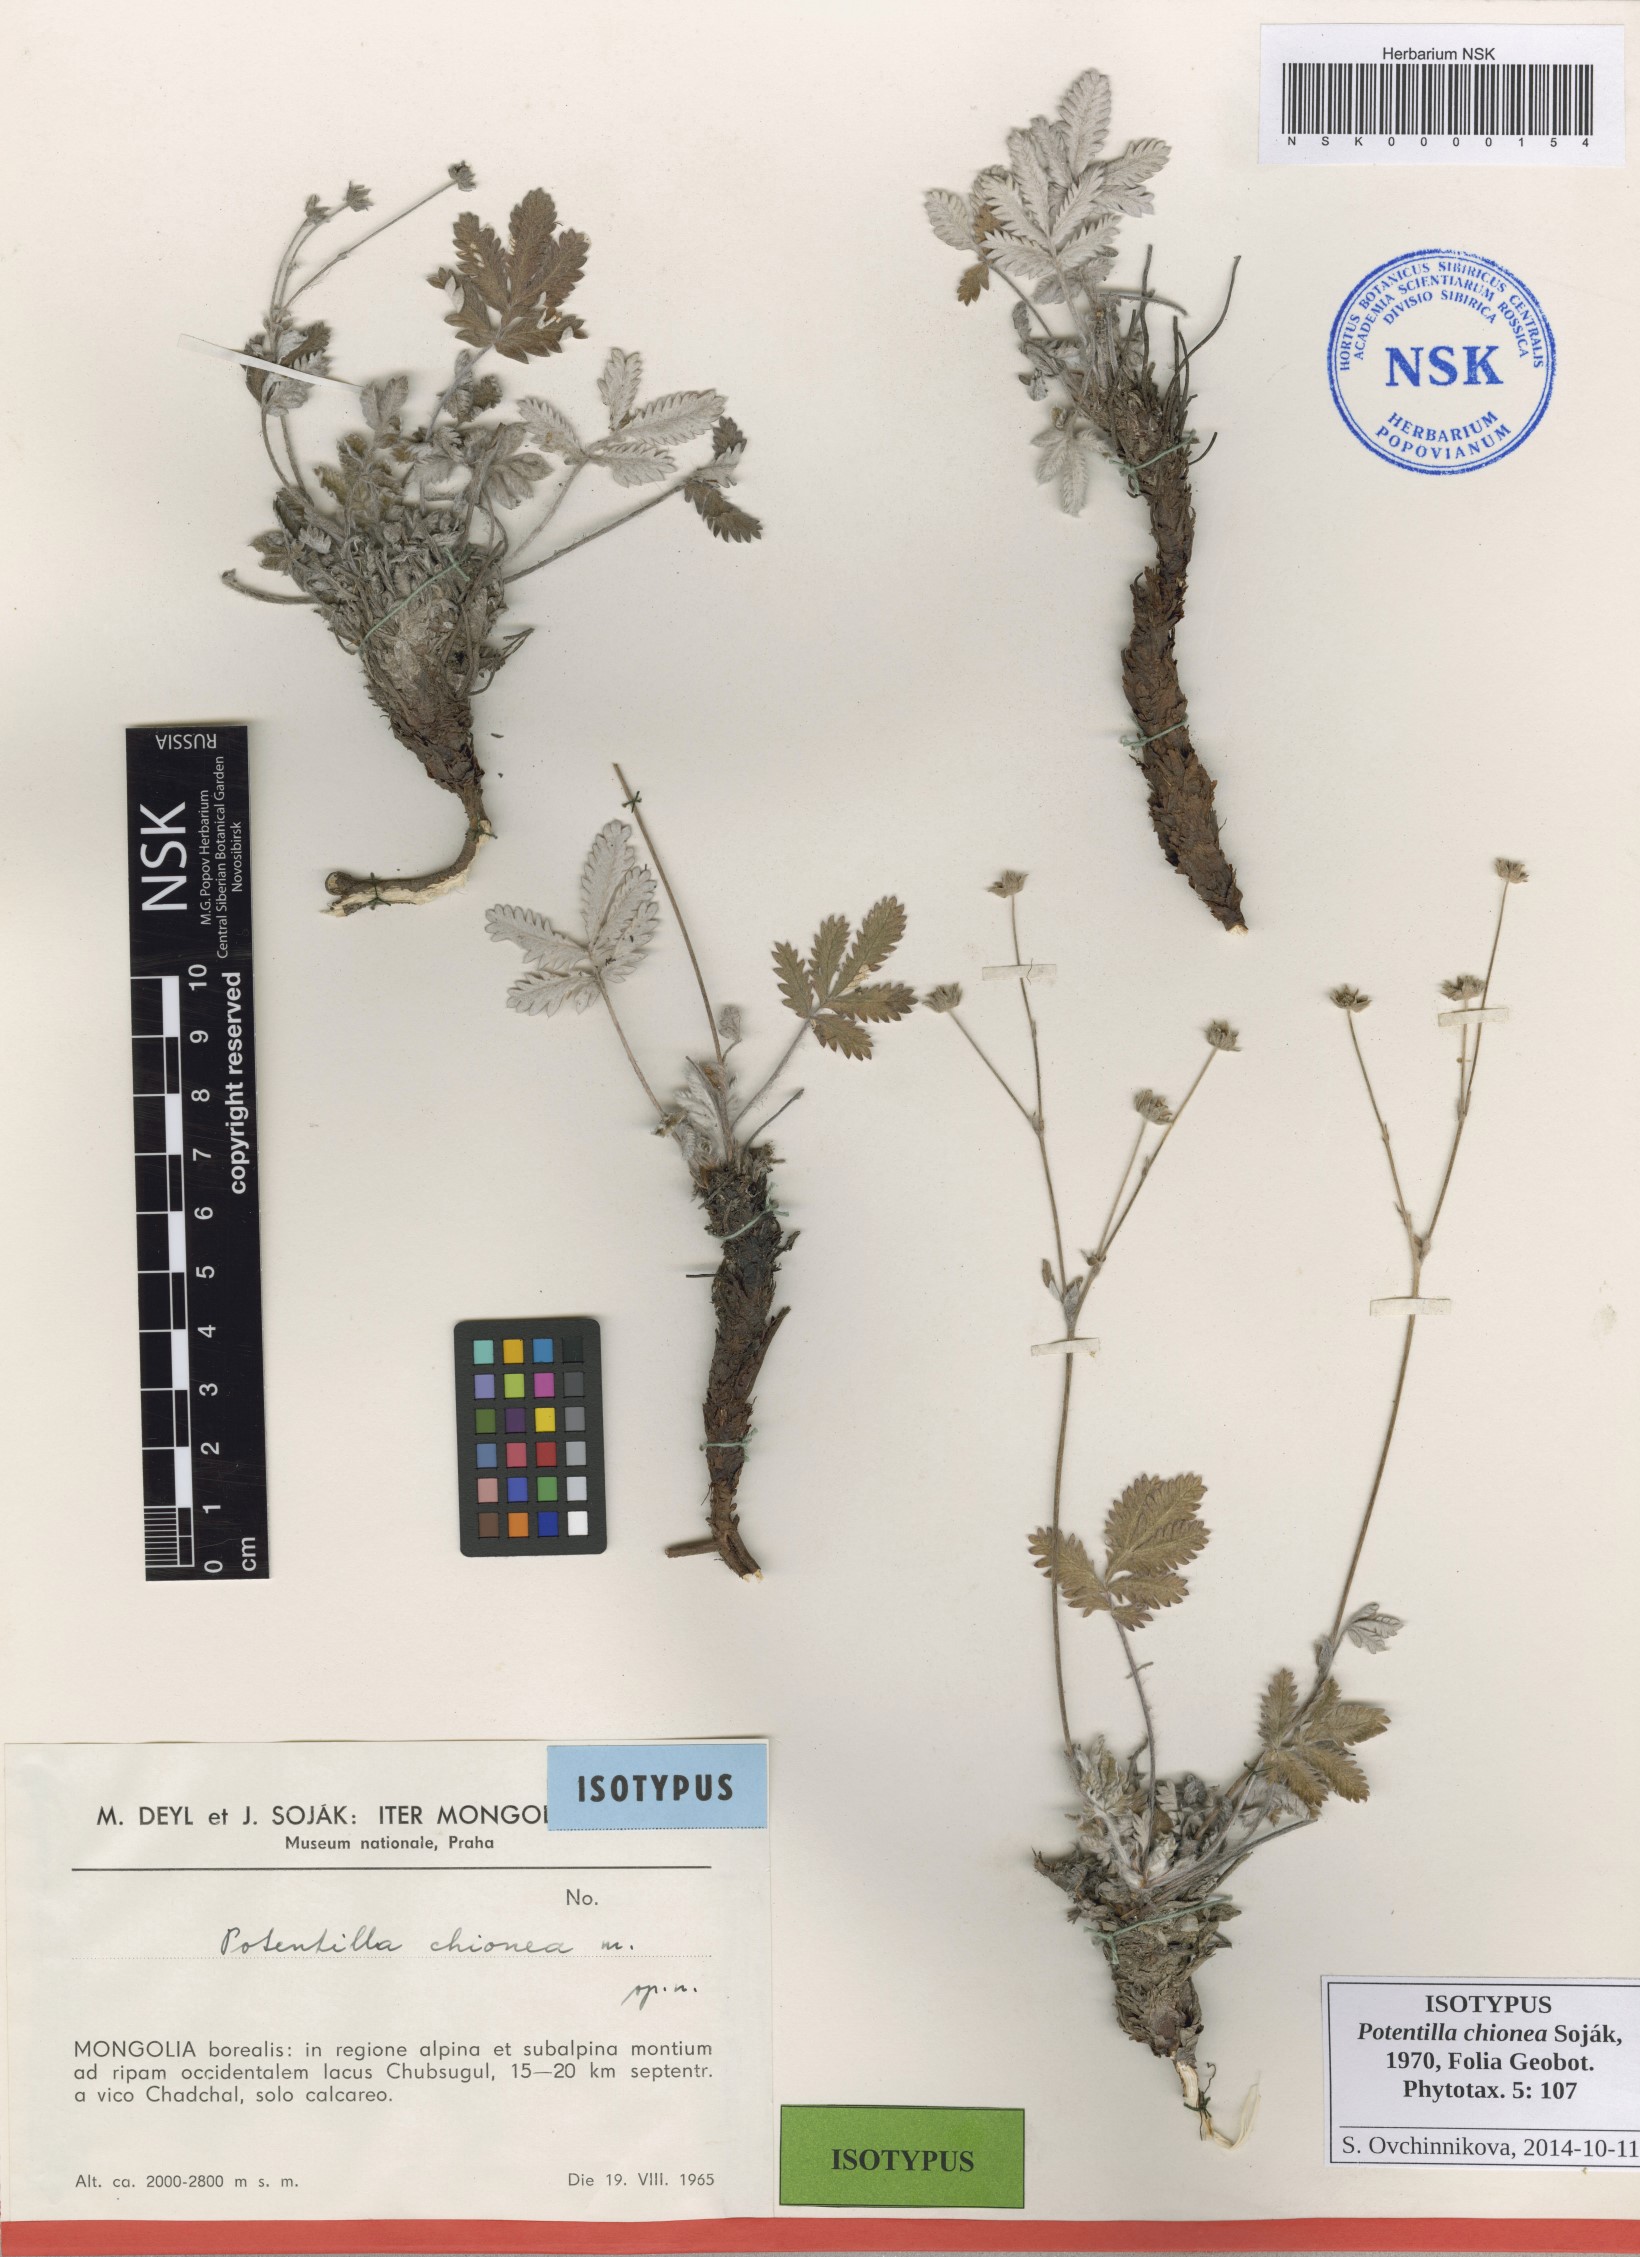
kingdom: Plantae
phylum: Tracheophyta
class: Magnoliopsida
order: Rosales
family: Rosaceae
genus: Potentilla
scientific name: Potentilla chionea
